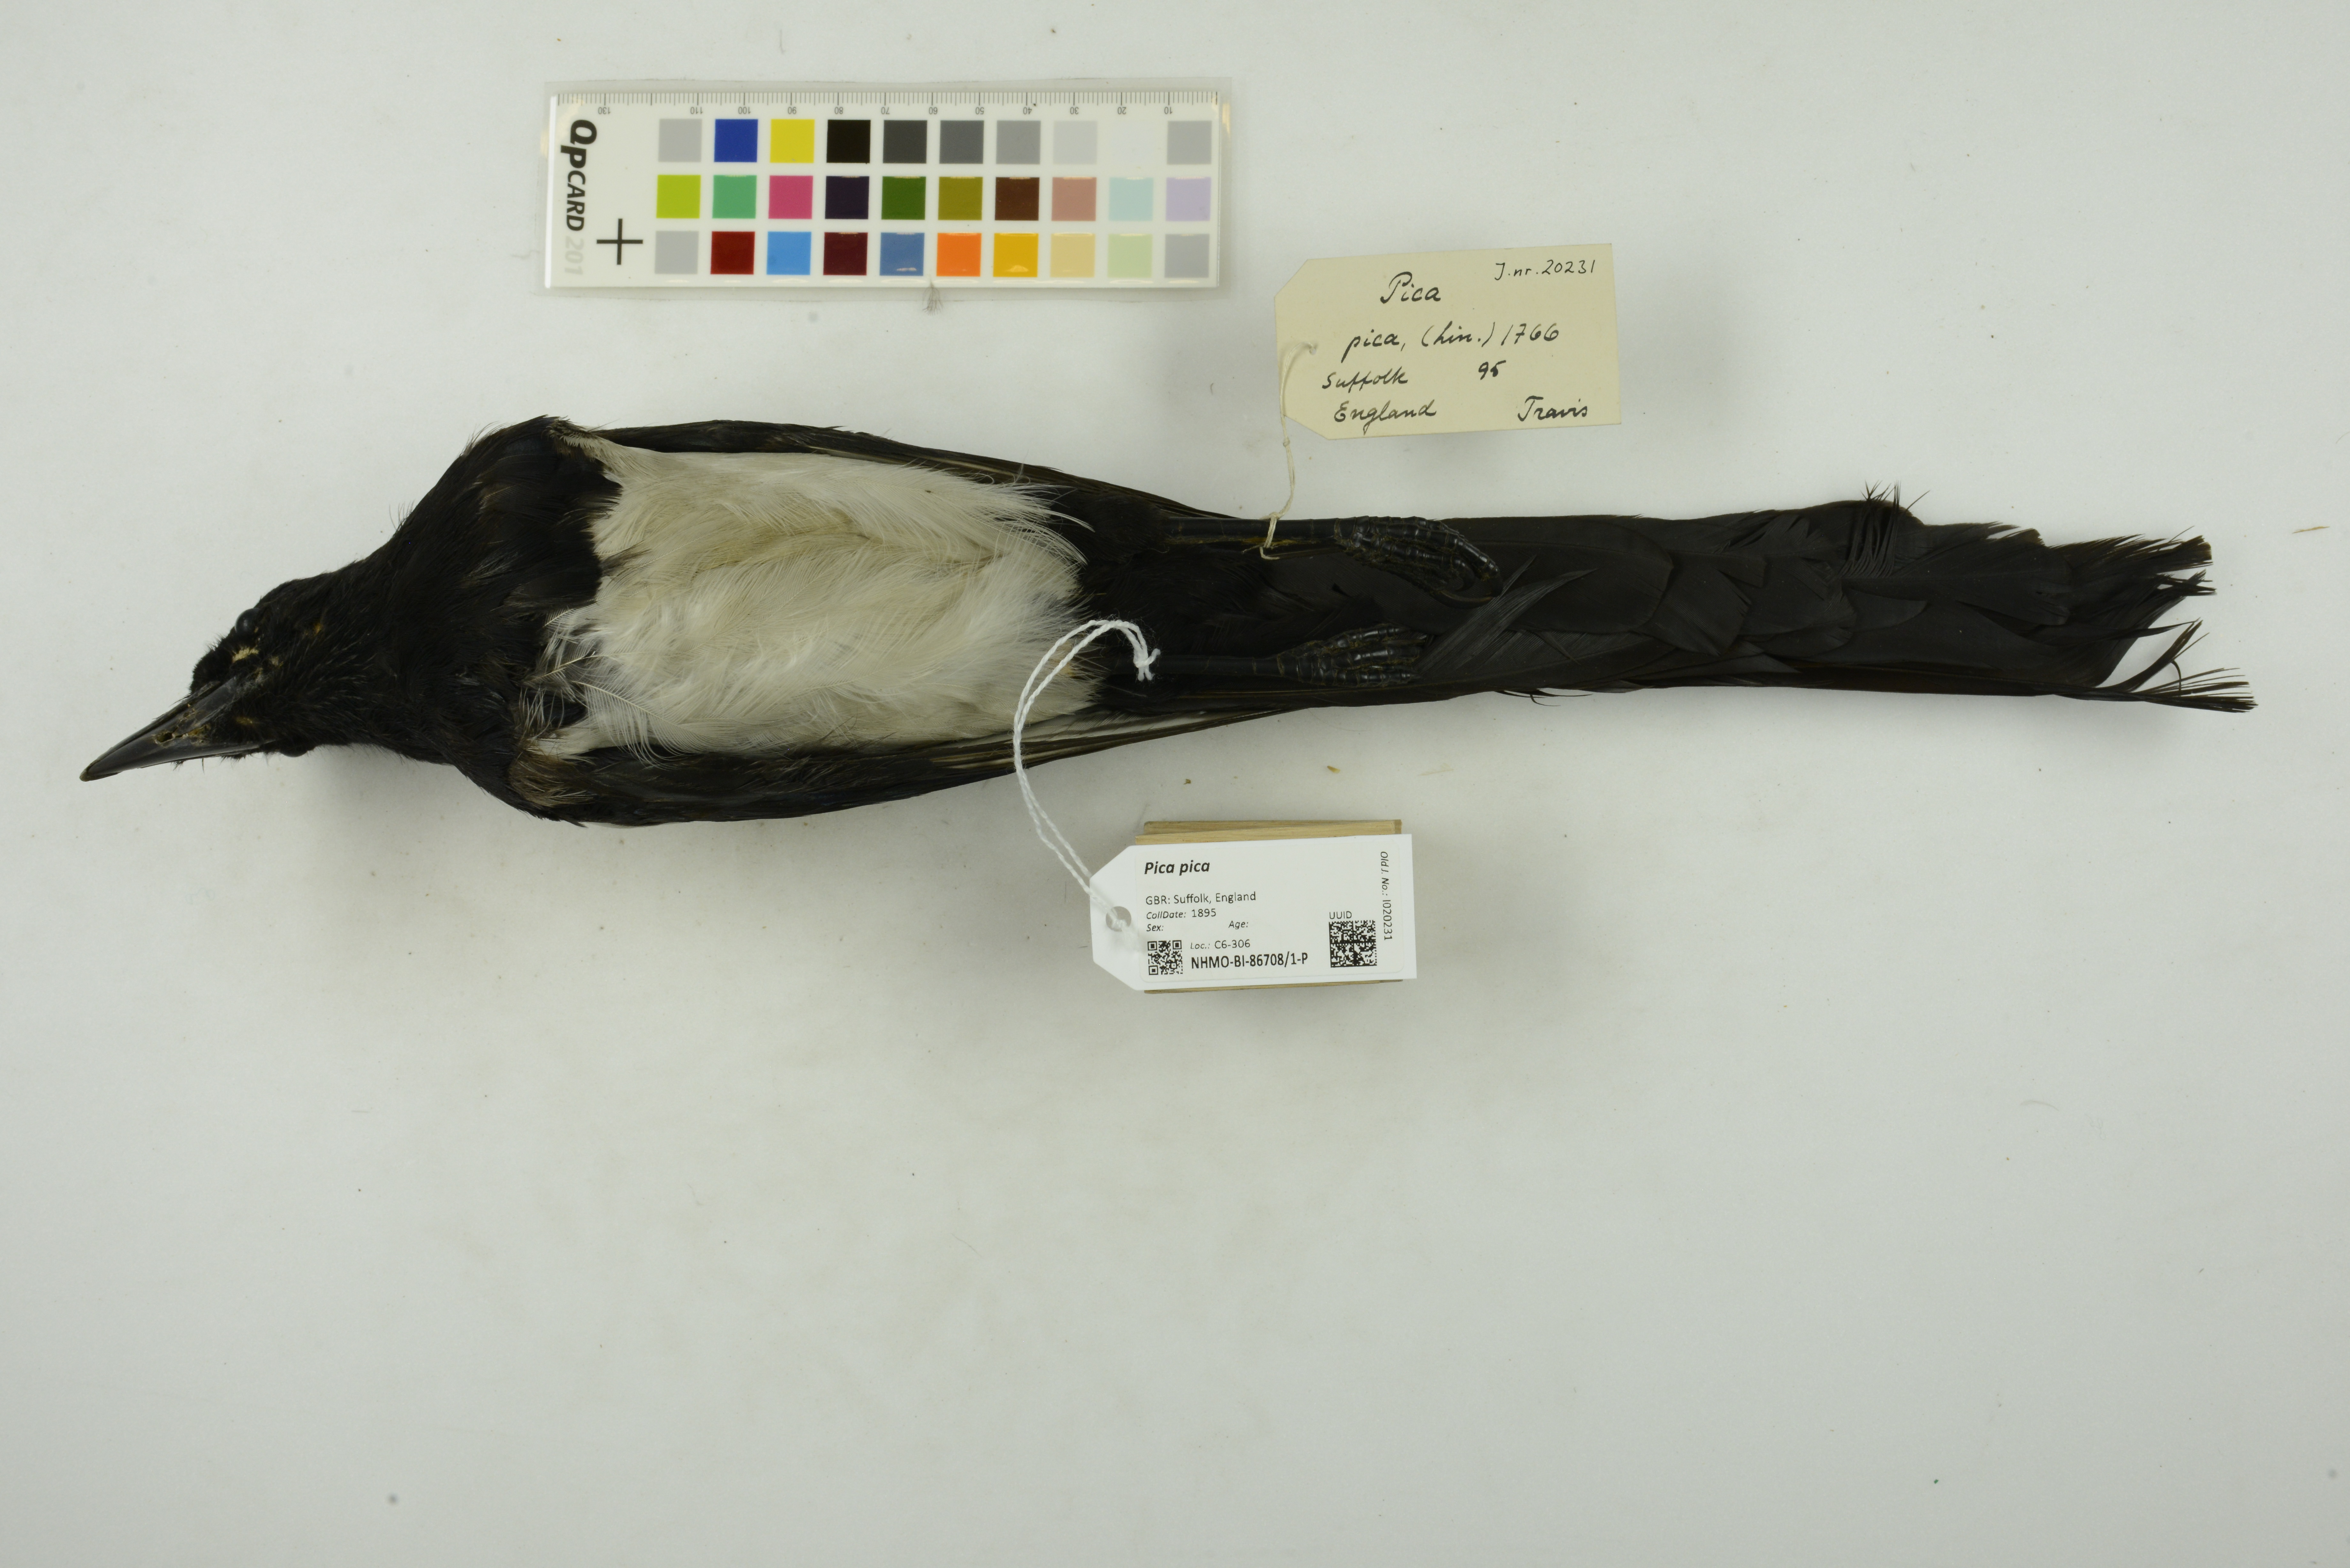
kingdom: Animalia
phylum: Chordata
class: Aves
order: Passeriformes
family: Corvidae
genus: Pica
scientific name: Pica pica
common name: Eurasian magpie
